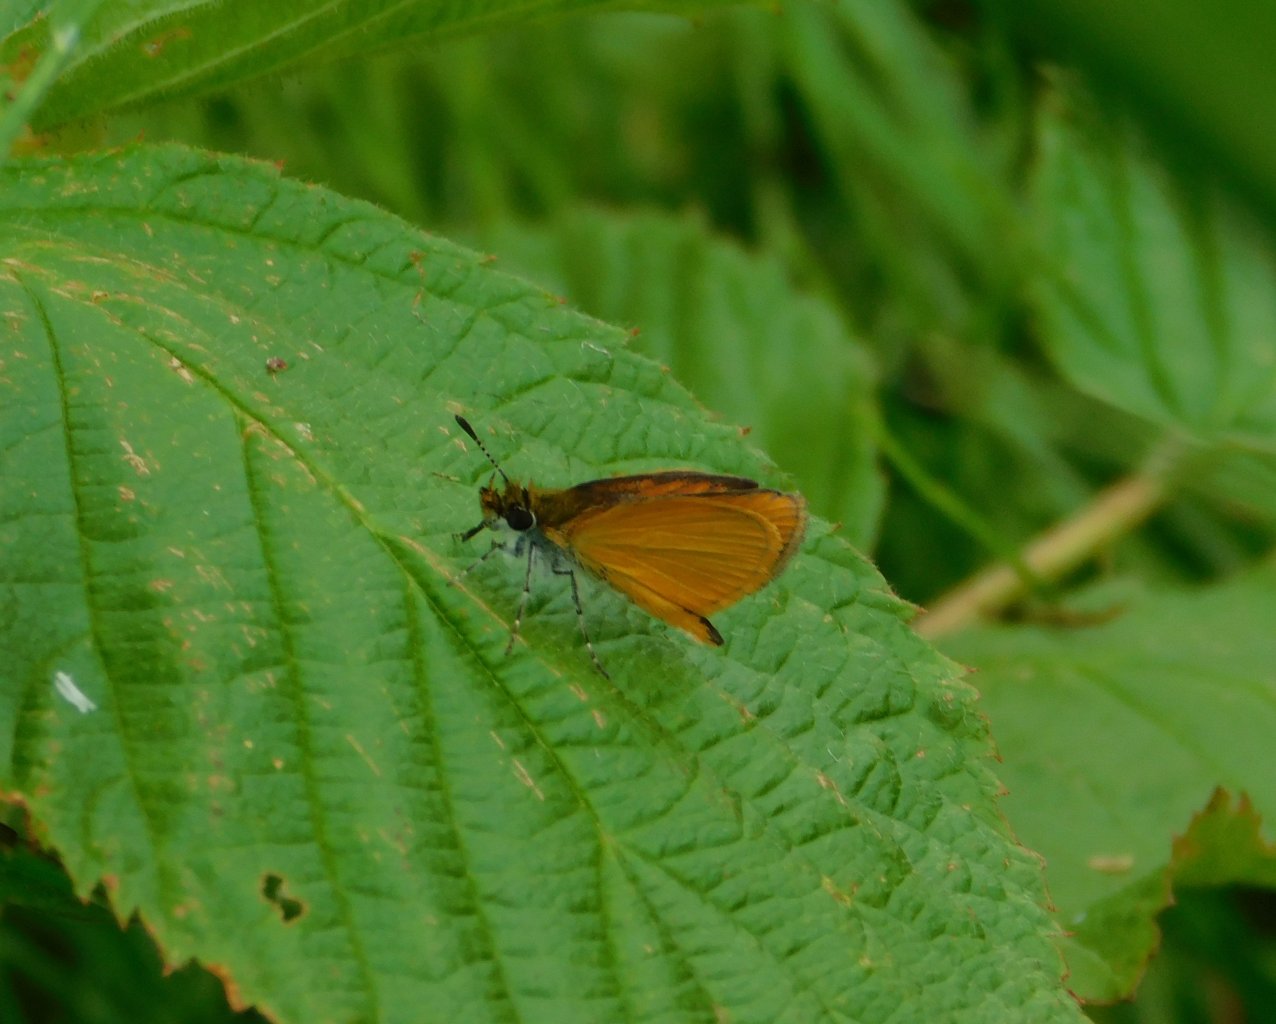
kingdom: Animalia
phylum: Arthropoda
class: Insecta
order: Lepidoptera
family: Hesperiidae
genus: Ancyloxypha
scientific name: Ancyloxypha numitor
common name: Least Skipper
